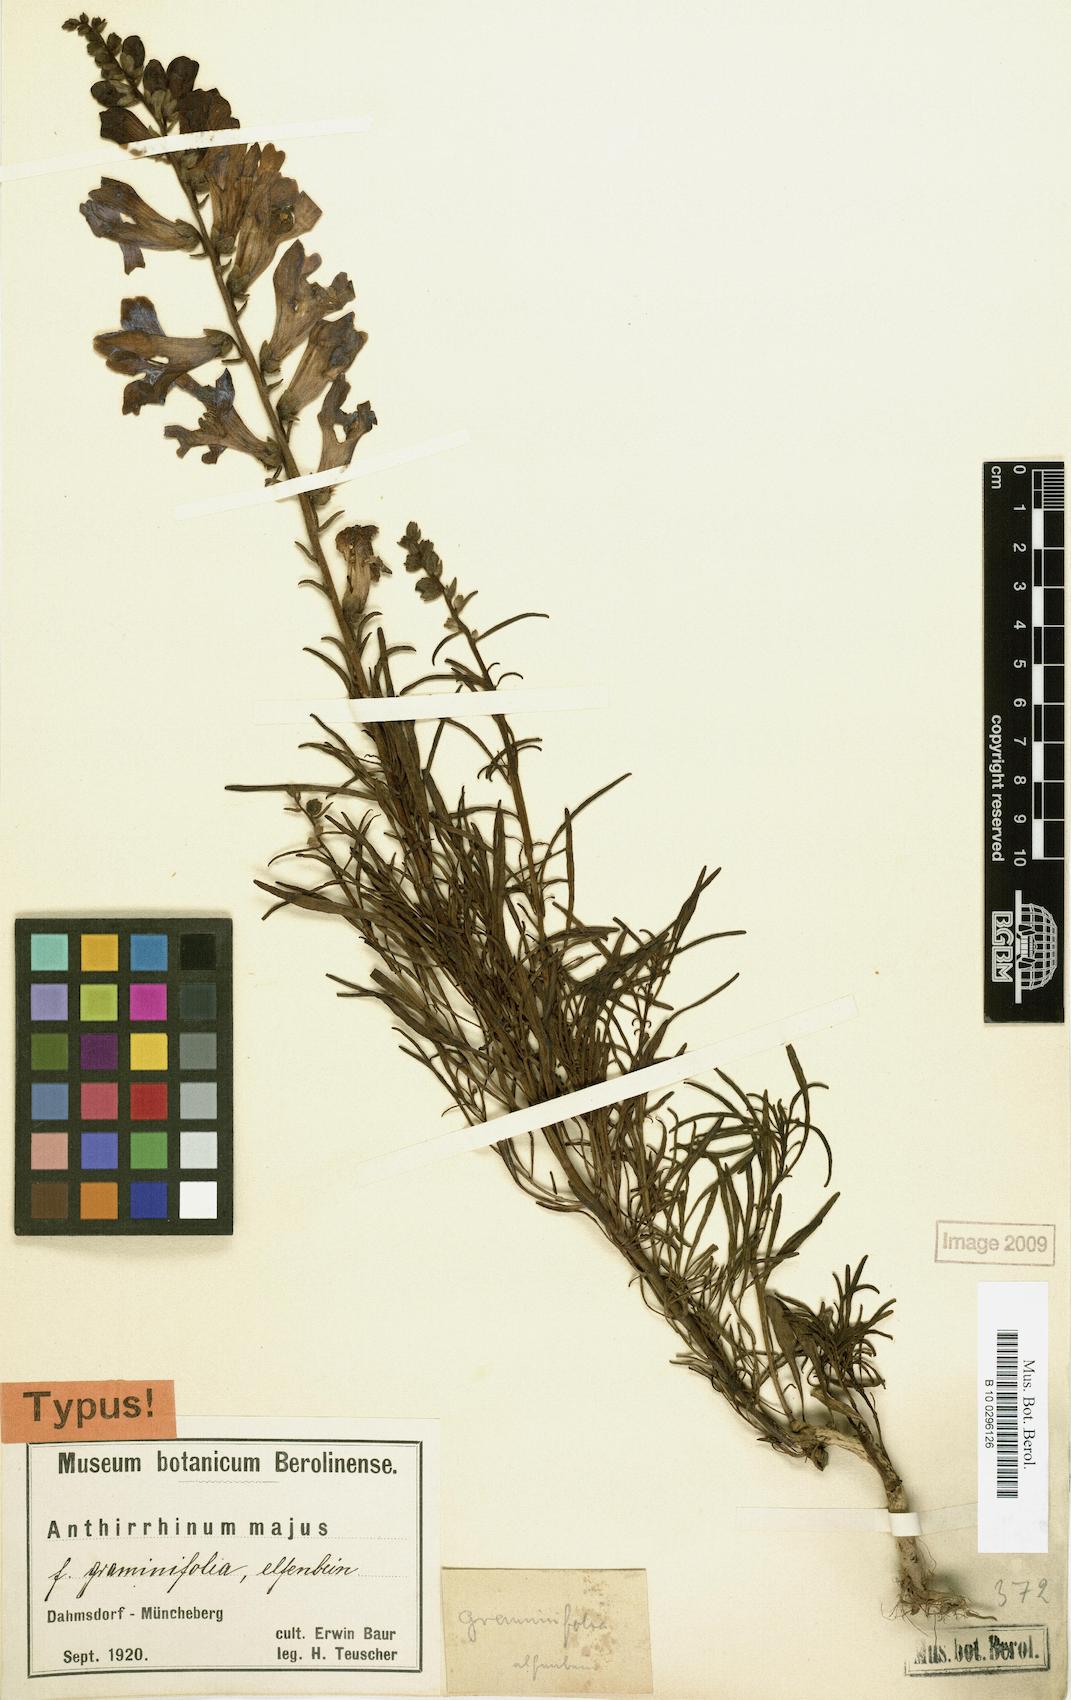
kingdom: Plantae
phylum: Tracheophyta
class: Magnoliopsida
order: Lamiales
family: Plantaginaceae
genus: Antirrhinum
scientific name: Antirrhinum majus
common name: Snapdragon
